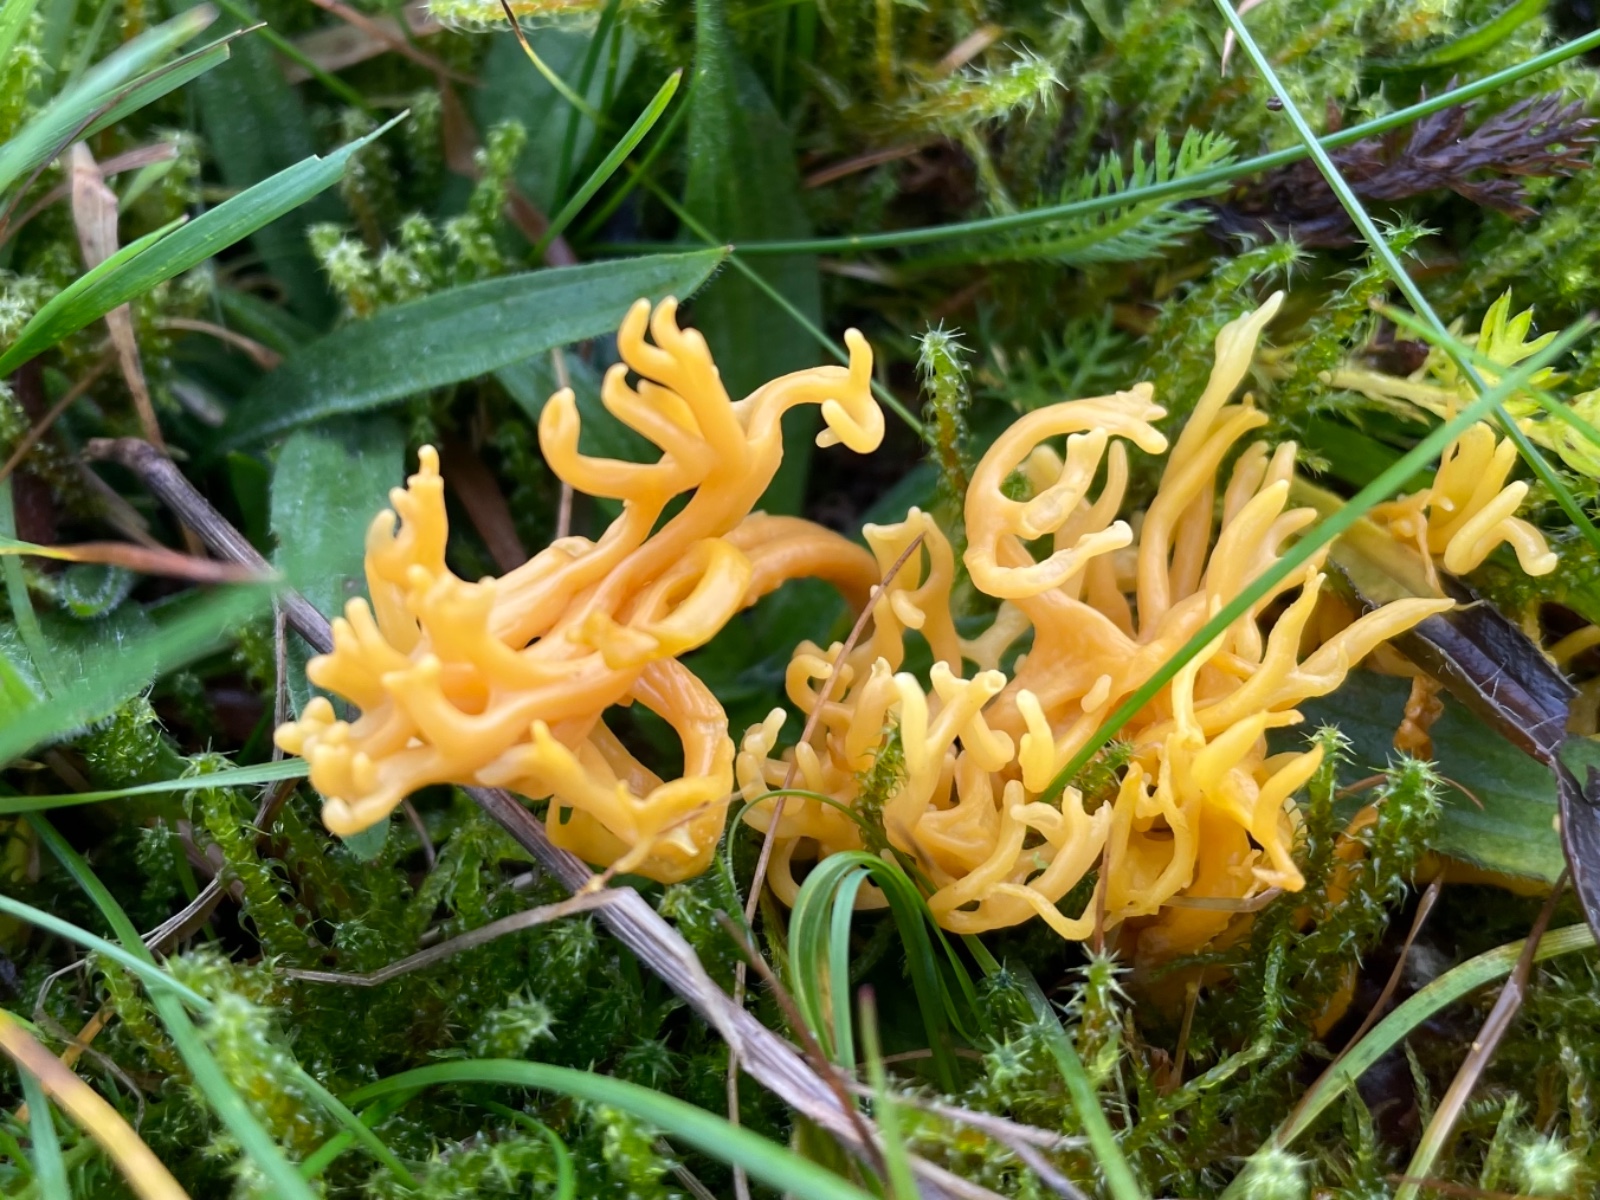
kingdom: Fungi
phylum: Basidiomycota
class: Agaricomycetes
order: Agaricales
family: Clavariaceae
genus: Clavulinopsis
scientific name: Clavulinopsis corniculata
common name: eng-køllesvamp
